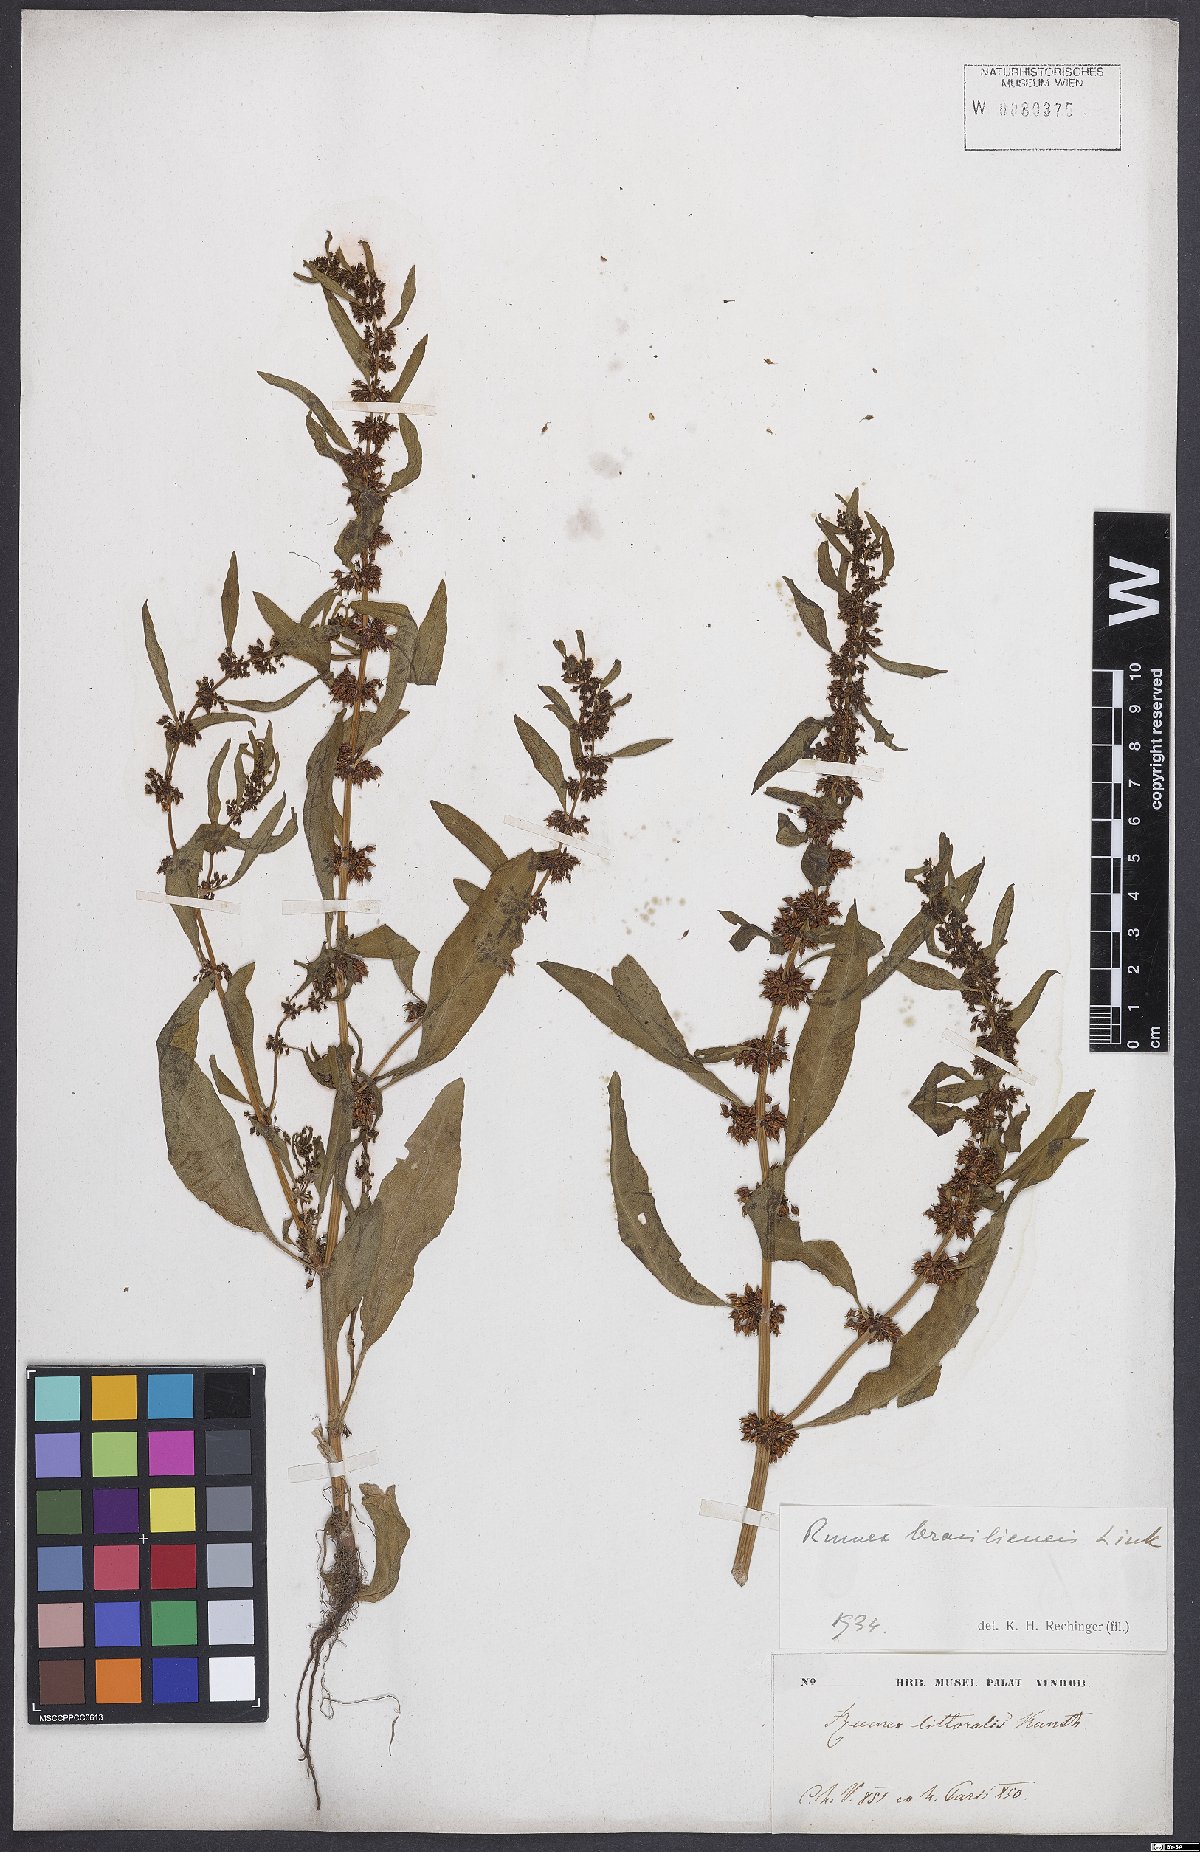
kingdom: Plantae
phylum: Tracheophyta
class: Magnoliopsida
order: Caryophyllales
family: Polygonaceae
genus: Rumex
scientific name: Rumex
